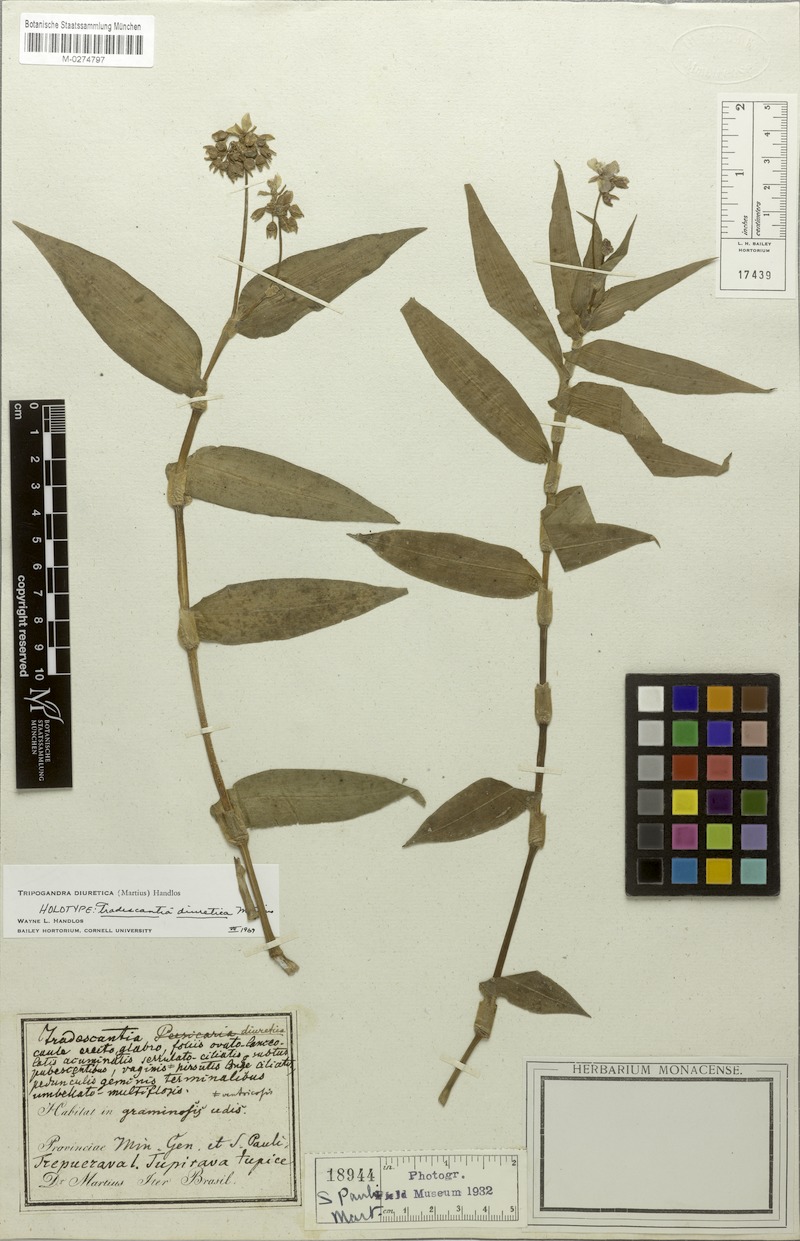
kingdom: Plantae
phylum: Tracheophyta
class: Liliopsida
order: Commelinales
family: Commelinaceae
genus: Callisia
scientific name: Callisia diuretica
